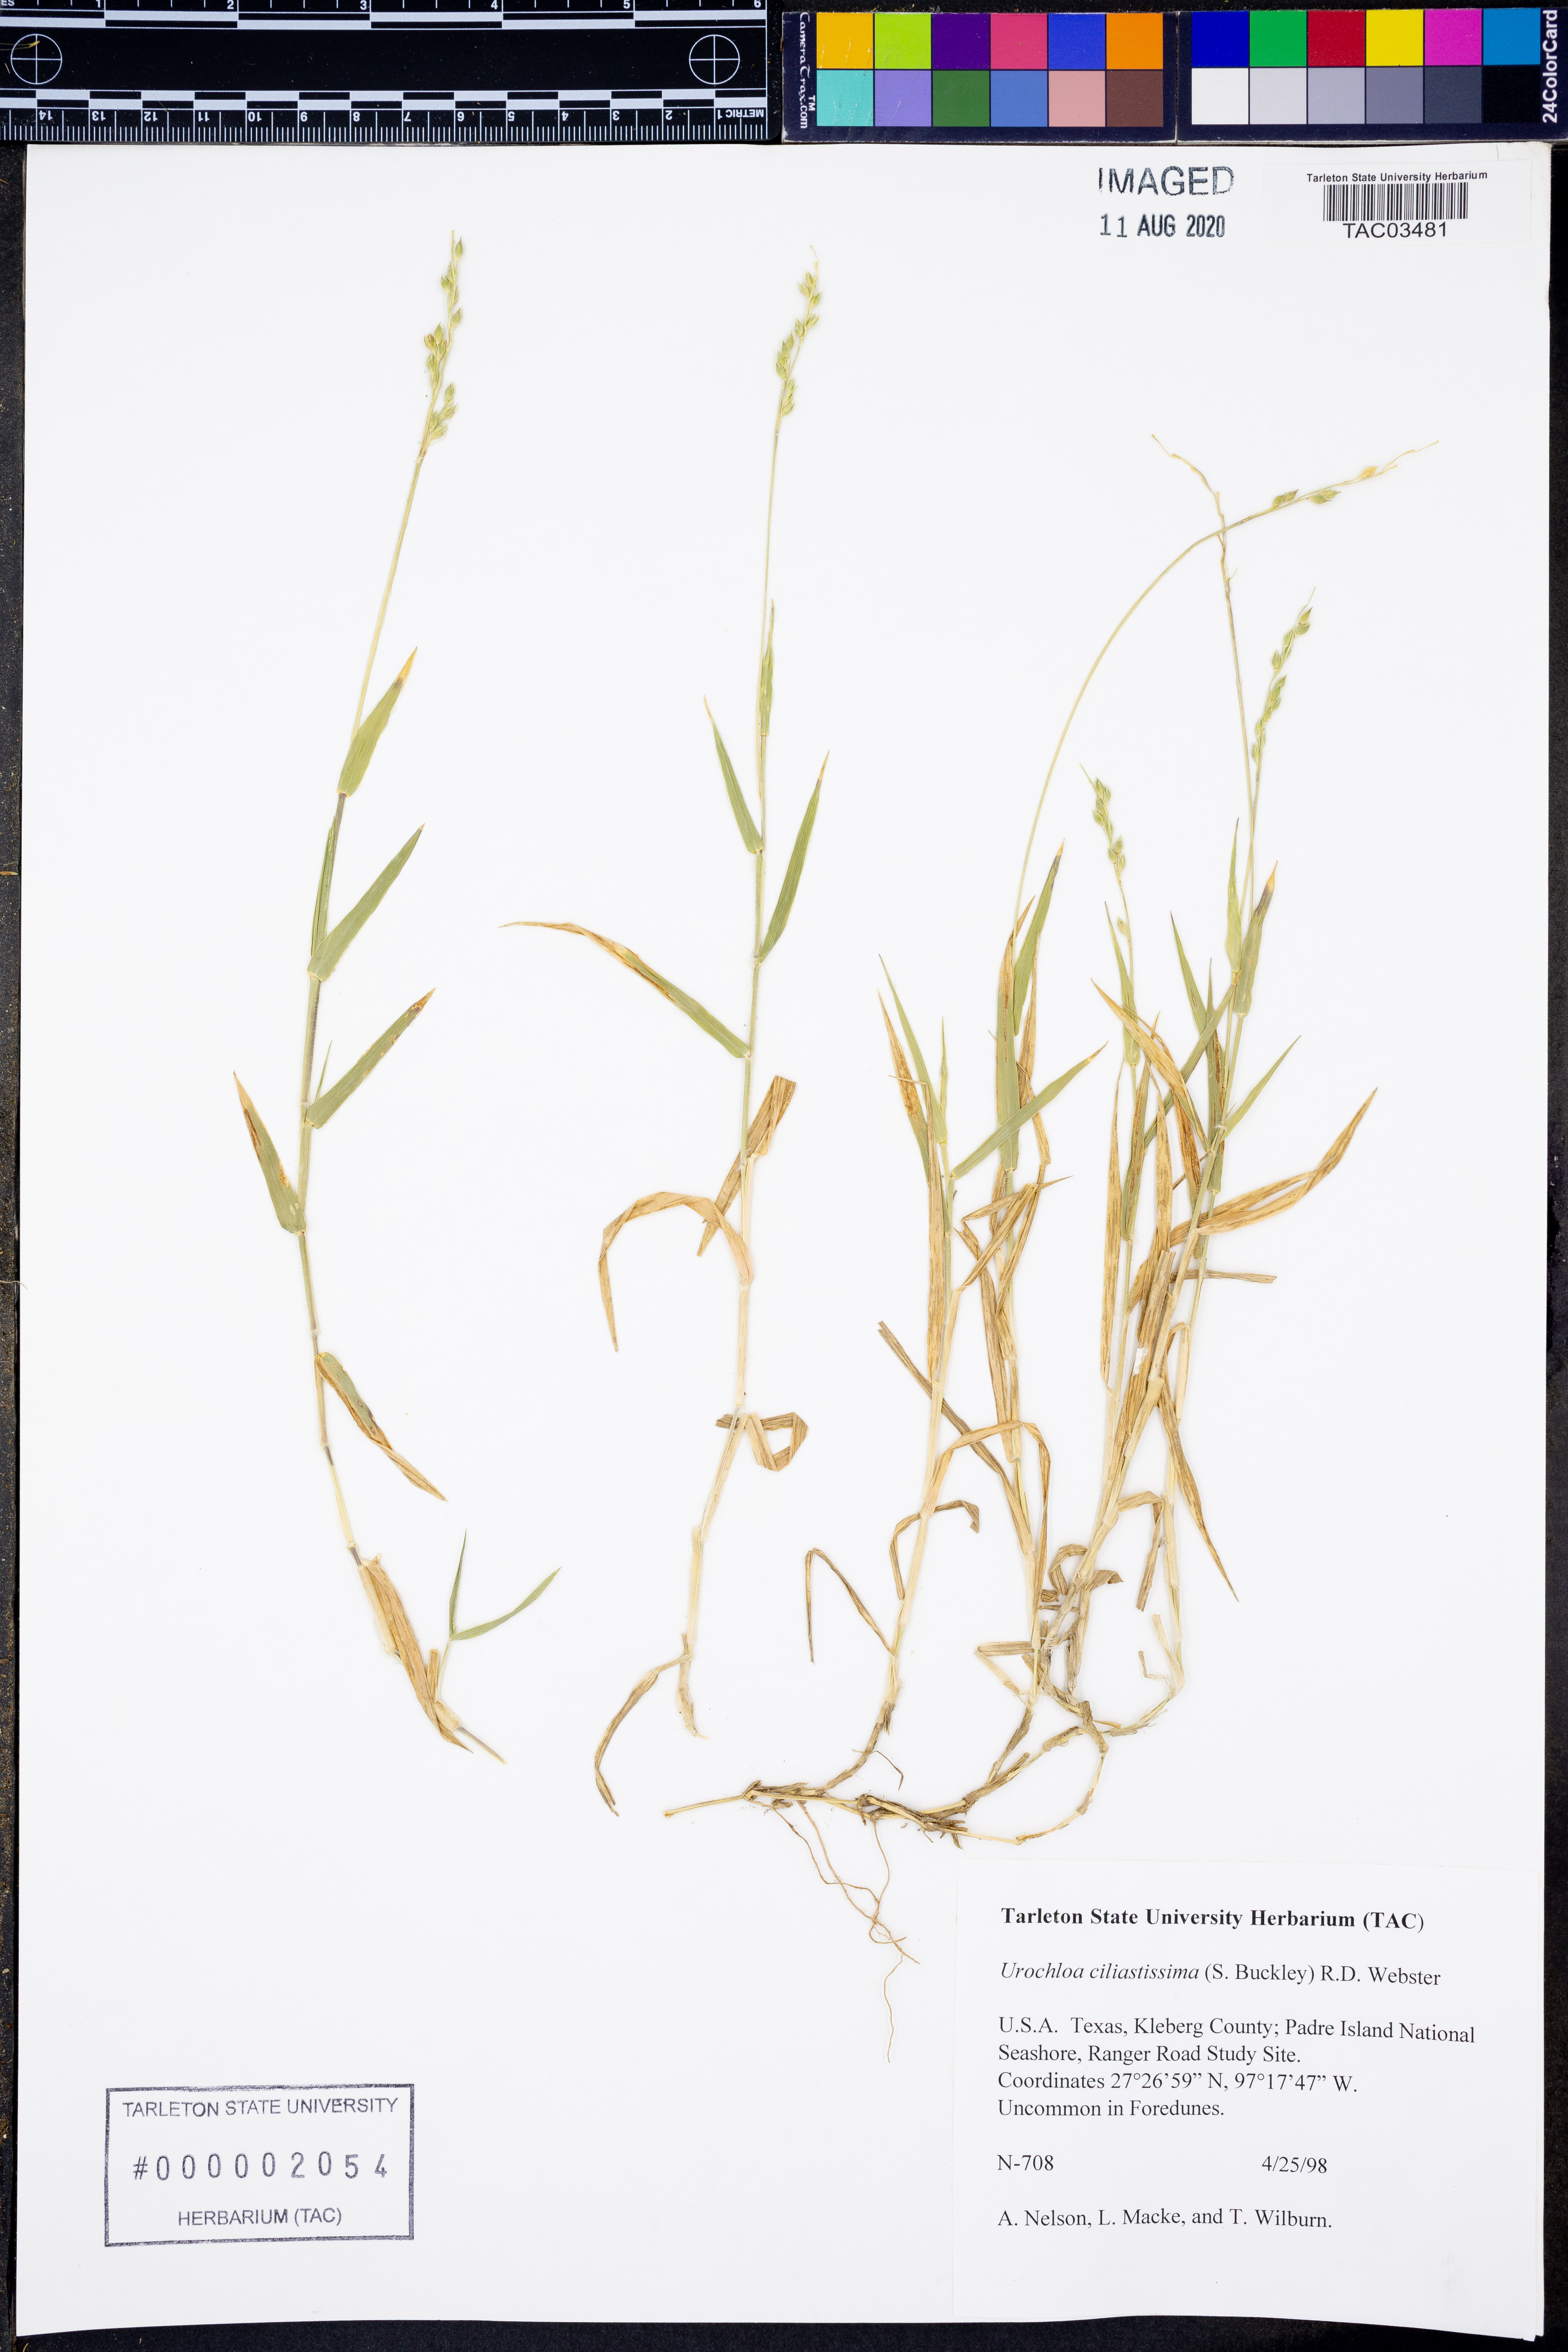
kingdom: Plantae
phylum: Tracheophyta
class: Liliopsida
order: Poales
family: Poaceae
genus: Urochloa
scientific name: Urochloa ciliatissima
